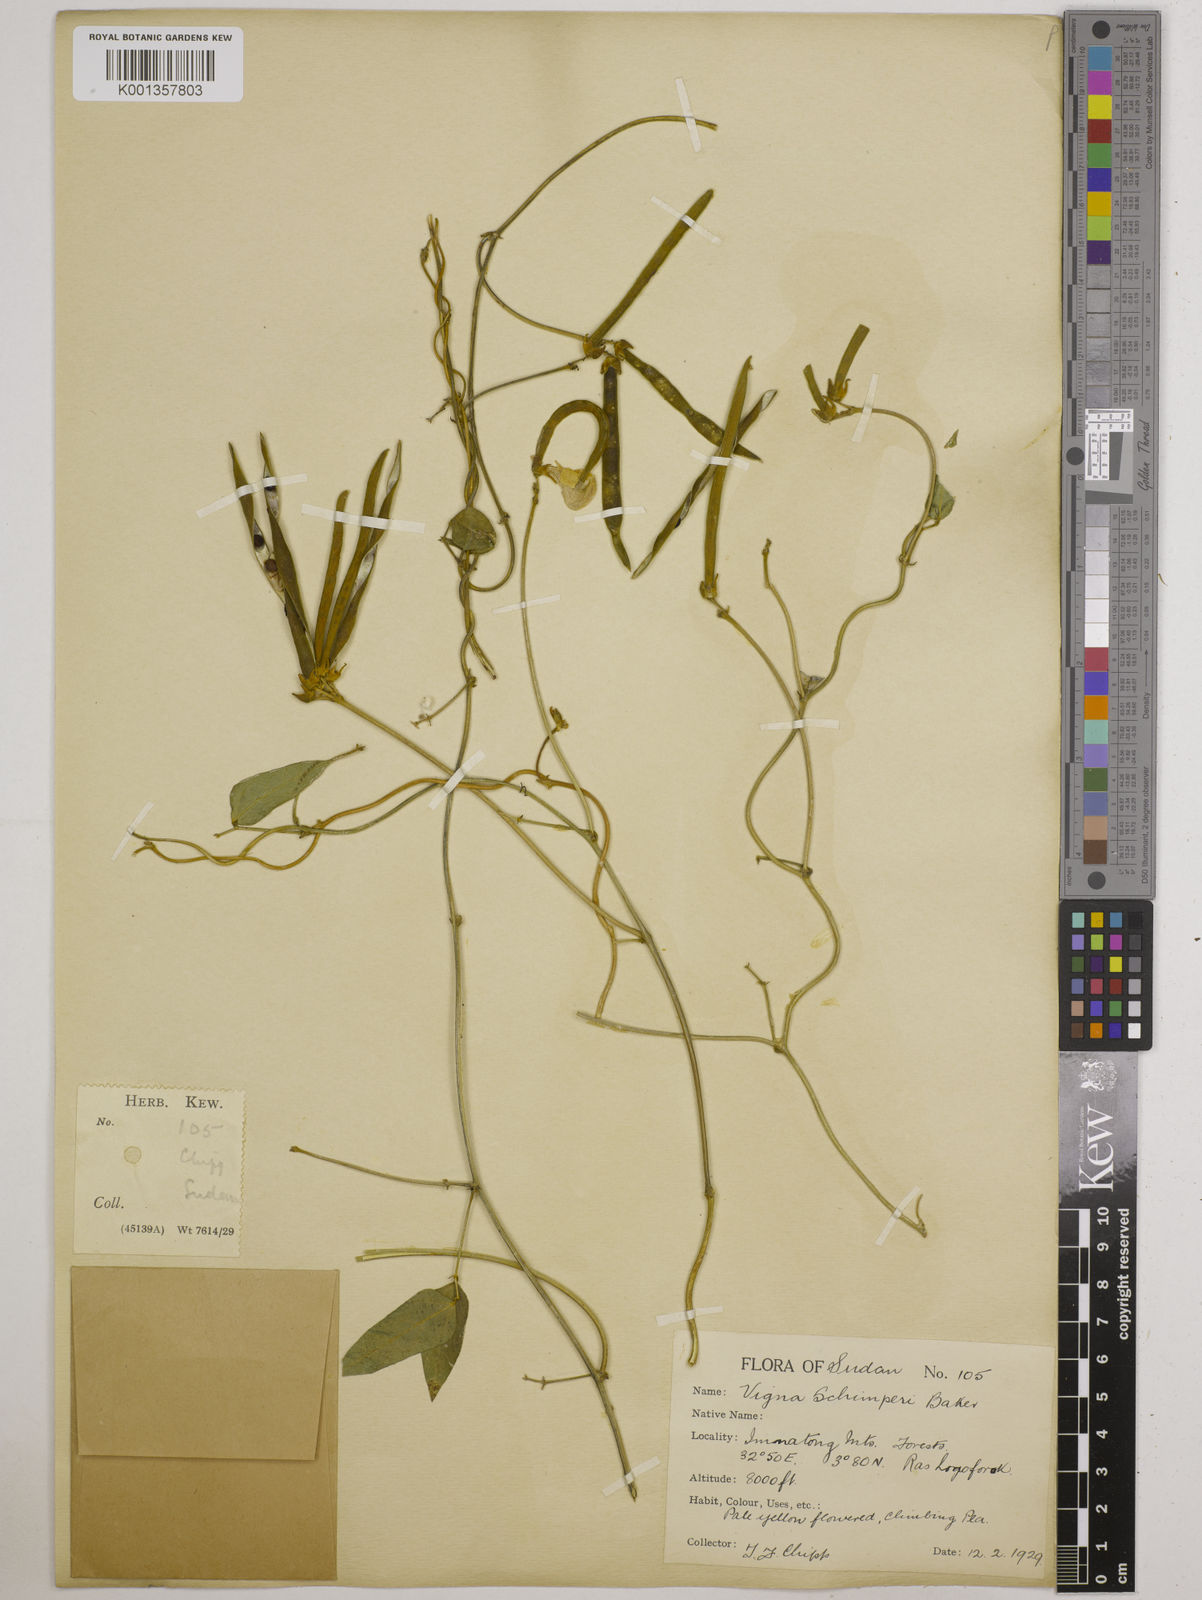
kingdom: Plantae
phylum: Tracheophyta
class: Magnoliopsida
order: Fabales
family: Fabaceae
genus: Vigna
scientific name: Vigna schimperi
